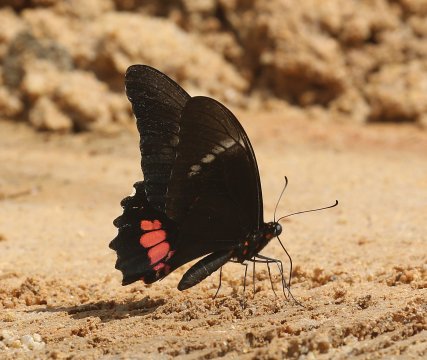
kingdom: Animalia
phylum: Arthropoda
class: Insecta
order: Lepidoptera
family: Papilionidae
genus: Papilio
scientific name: Papilio rogeri
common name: Pink-spotted Swallowtail
